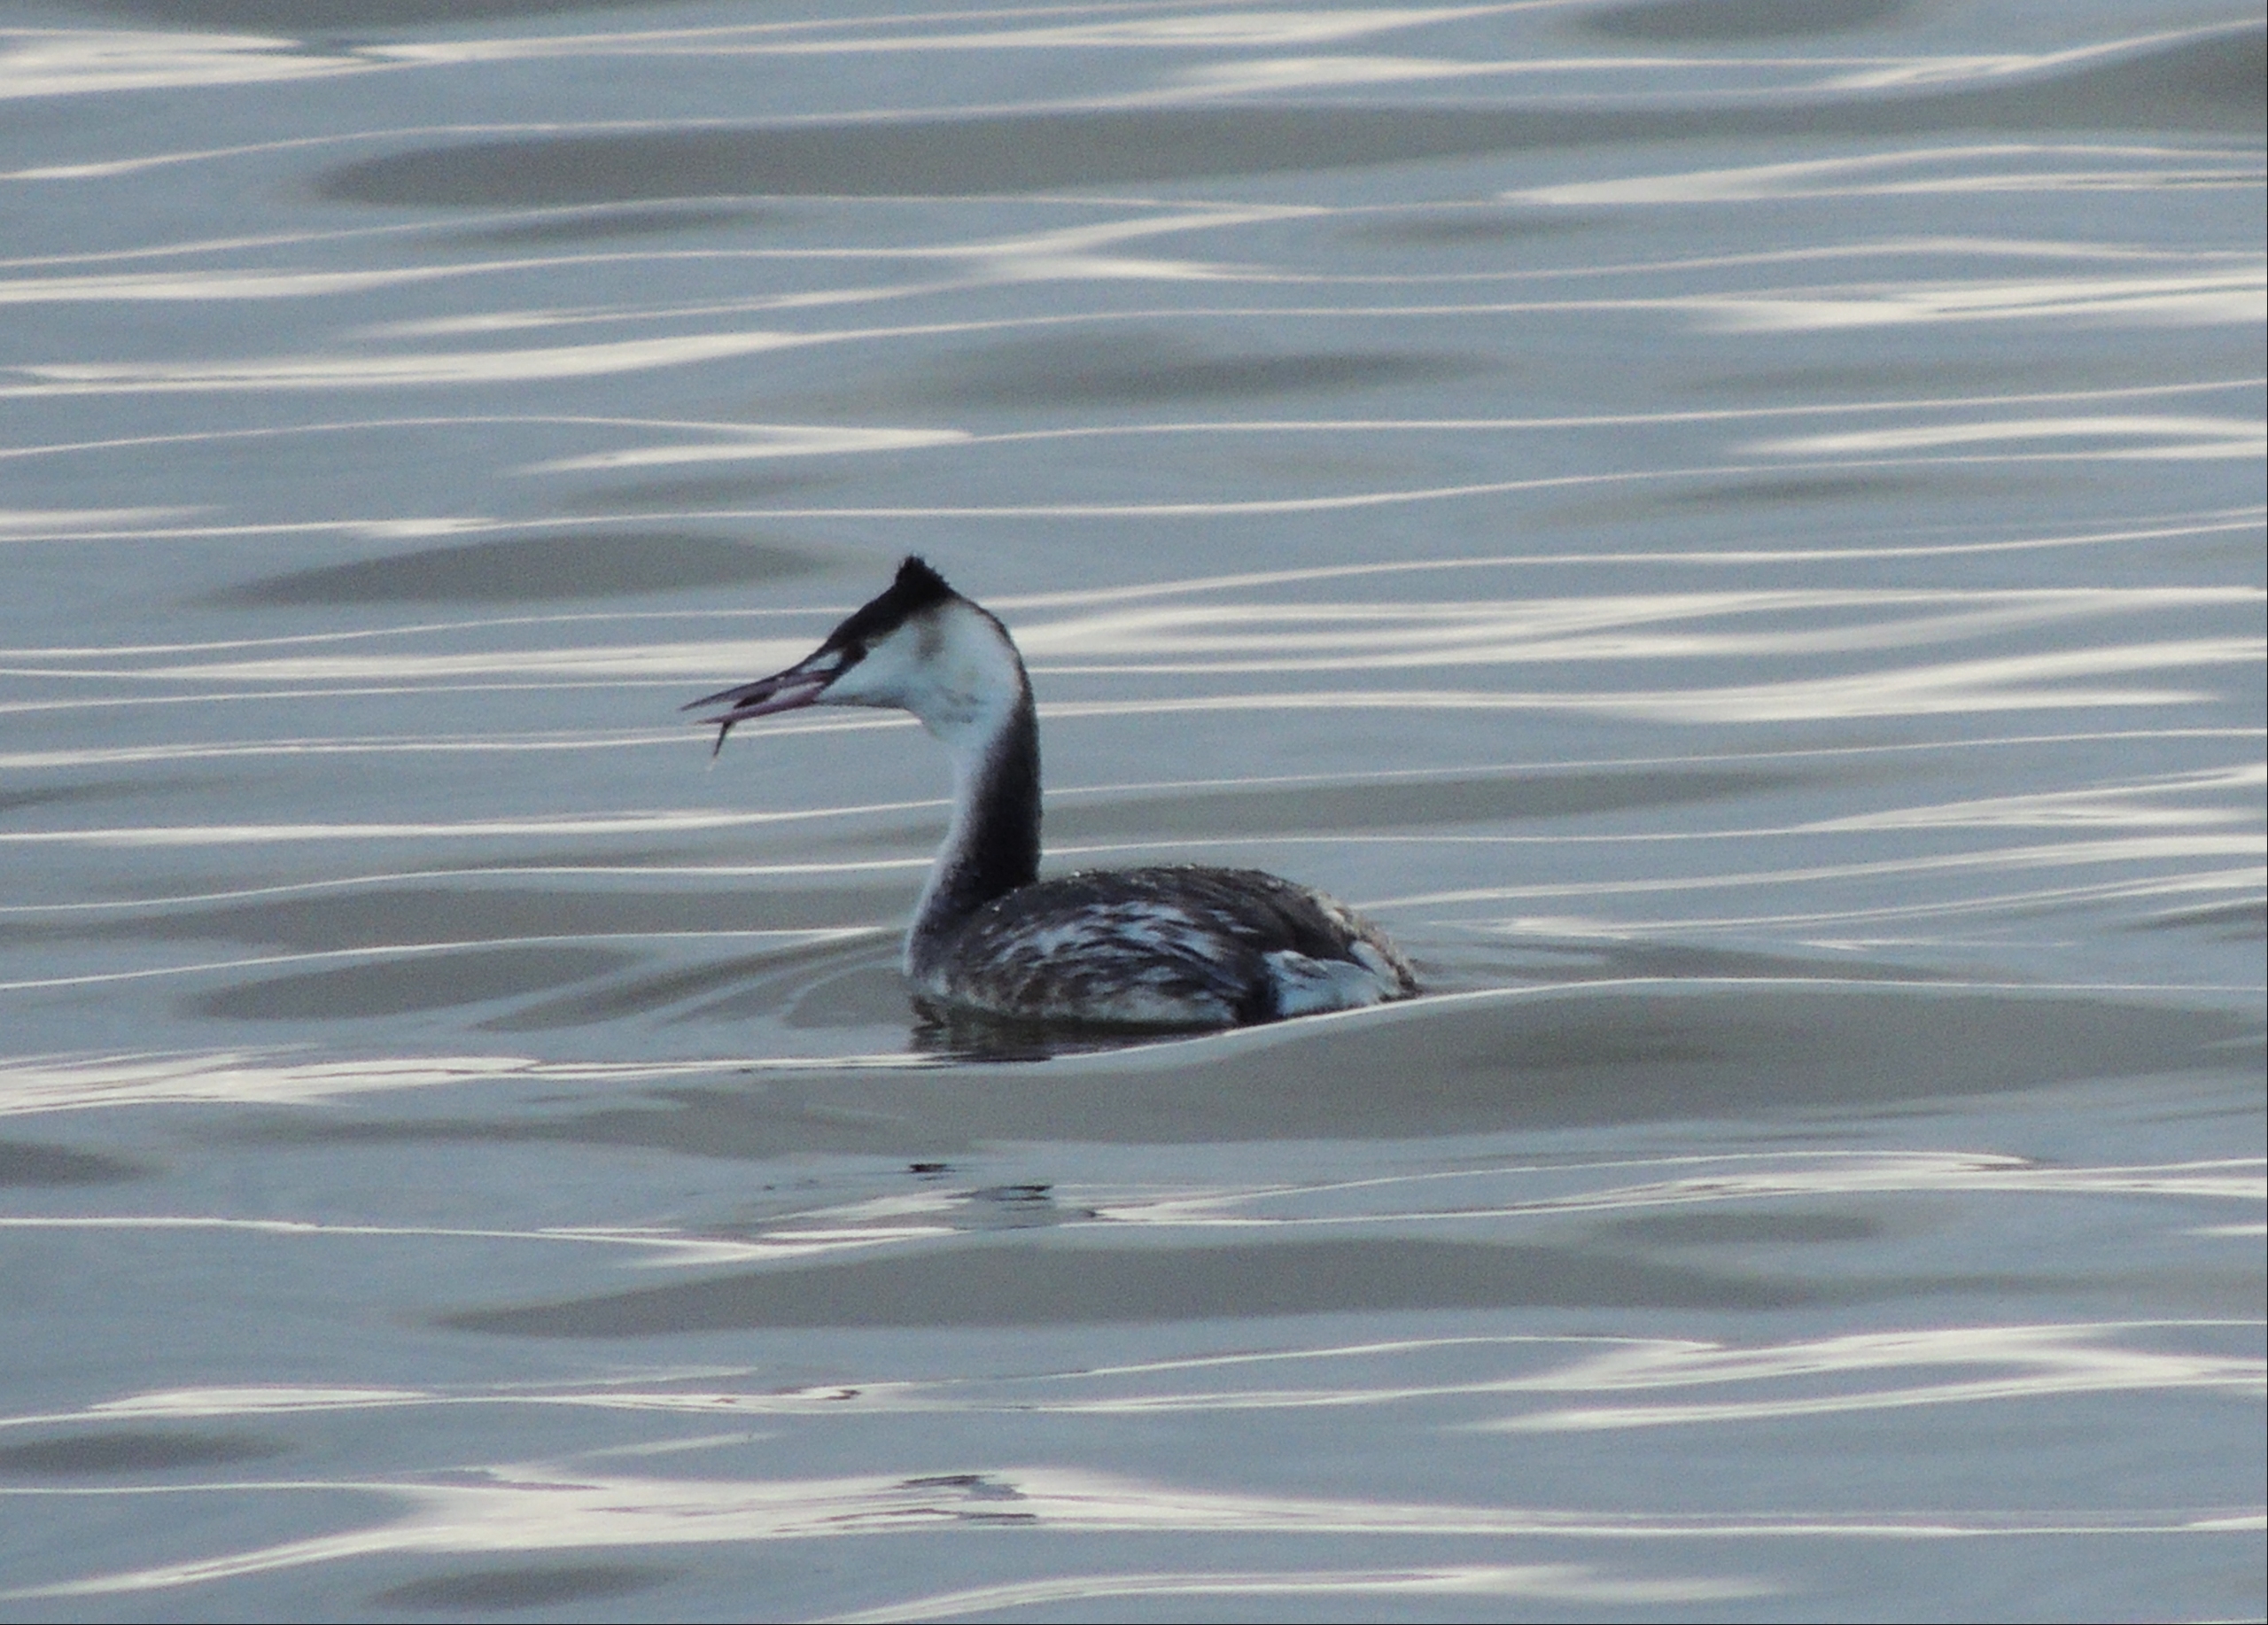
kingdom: Animalia
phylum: Chordata
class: Aves
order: Podicipediformes
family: Podicipedidae
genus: Podiceps
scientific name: Podiceps cristatus
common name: Toppet lappedykker
